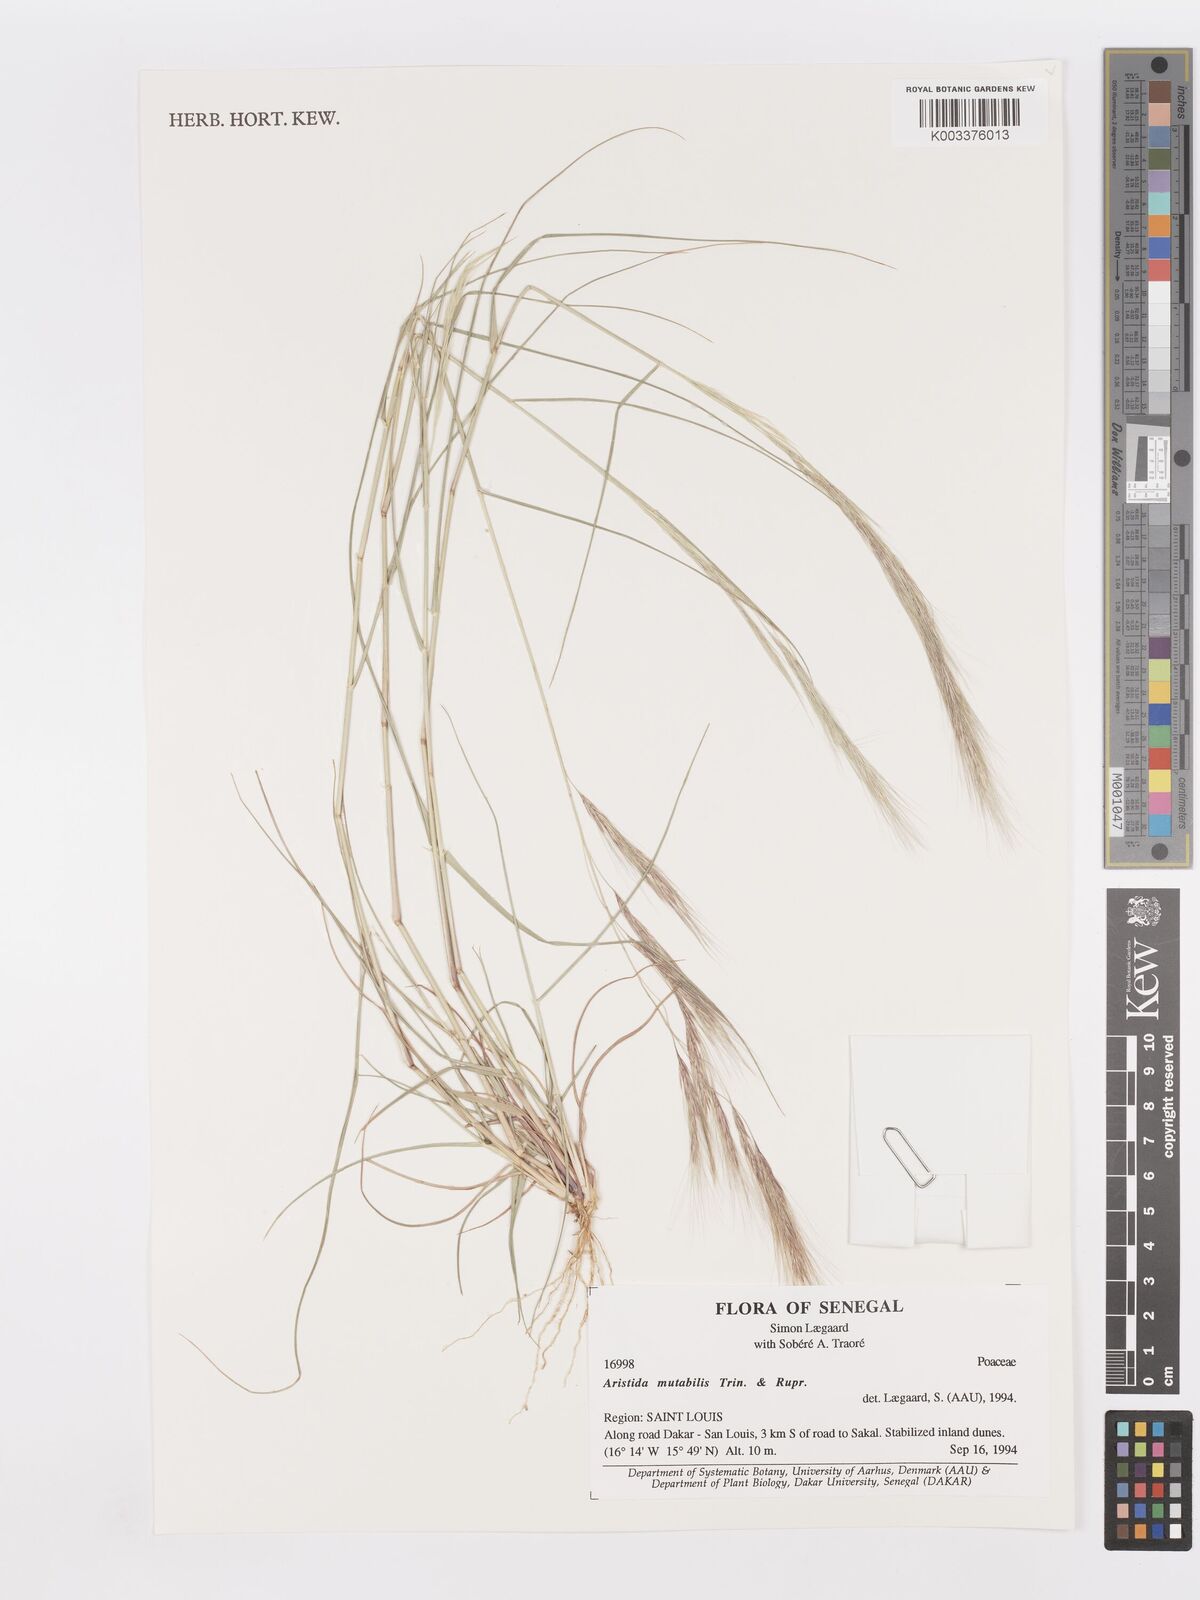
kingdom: Plantae
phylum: Tracheophyta
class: Liliopsida
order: Poales
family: Poaceae
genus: Aristida
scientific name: Aristida mutabilis
